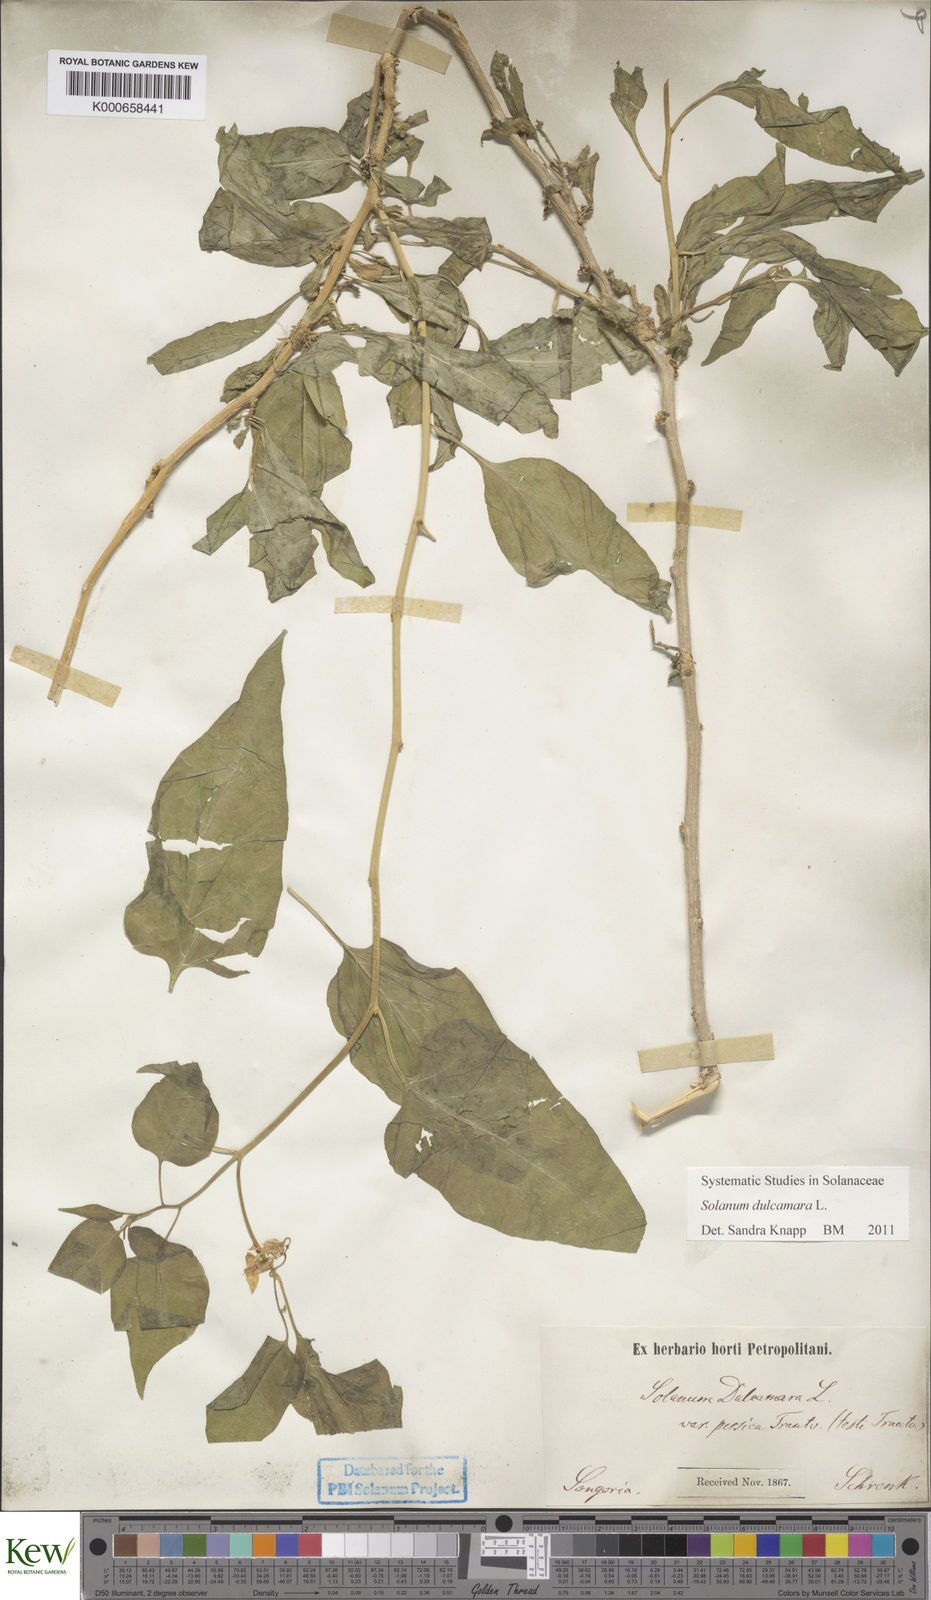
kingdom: Plantae
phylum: Tracheophyta
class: Magnoliopsida
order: Solanales
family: Solanaceae
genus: Solanum
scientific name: Solanum dulcamara
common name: Climbing nightshade
